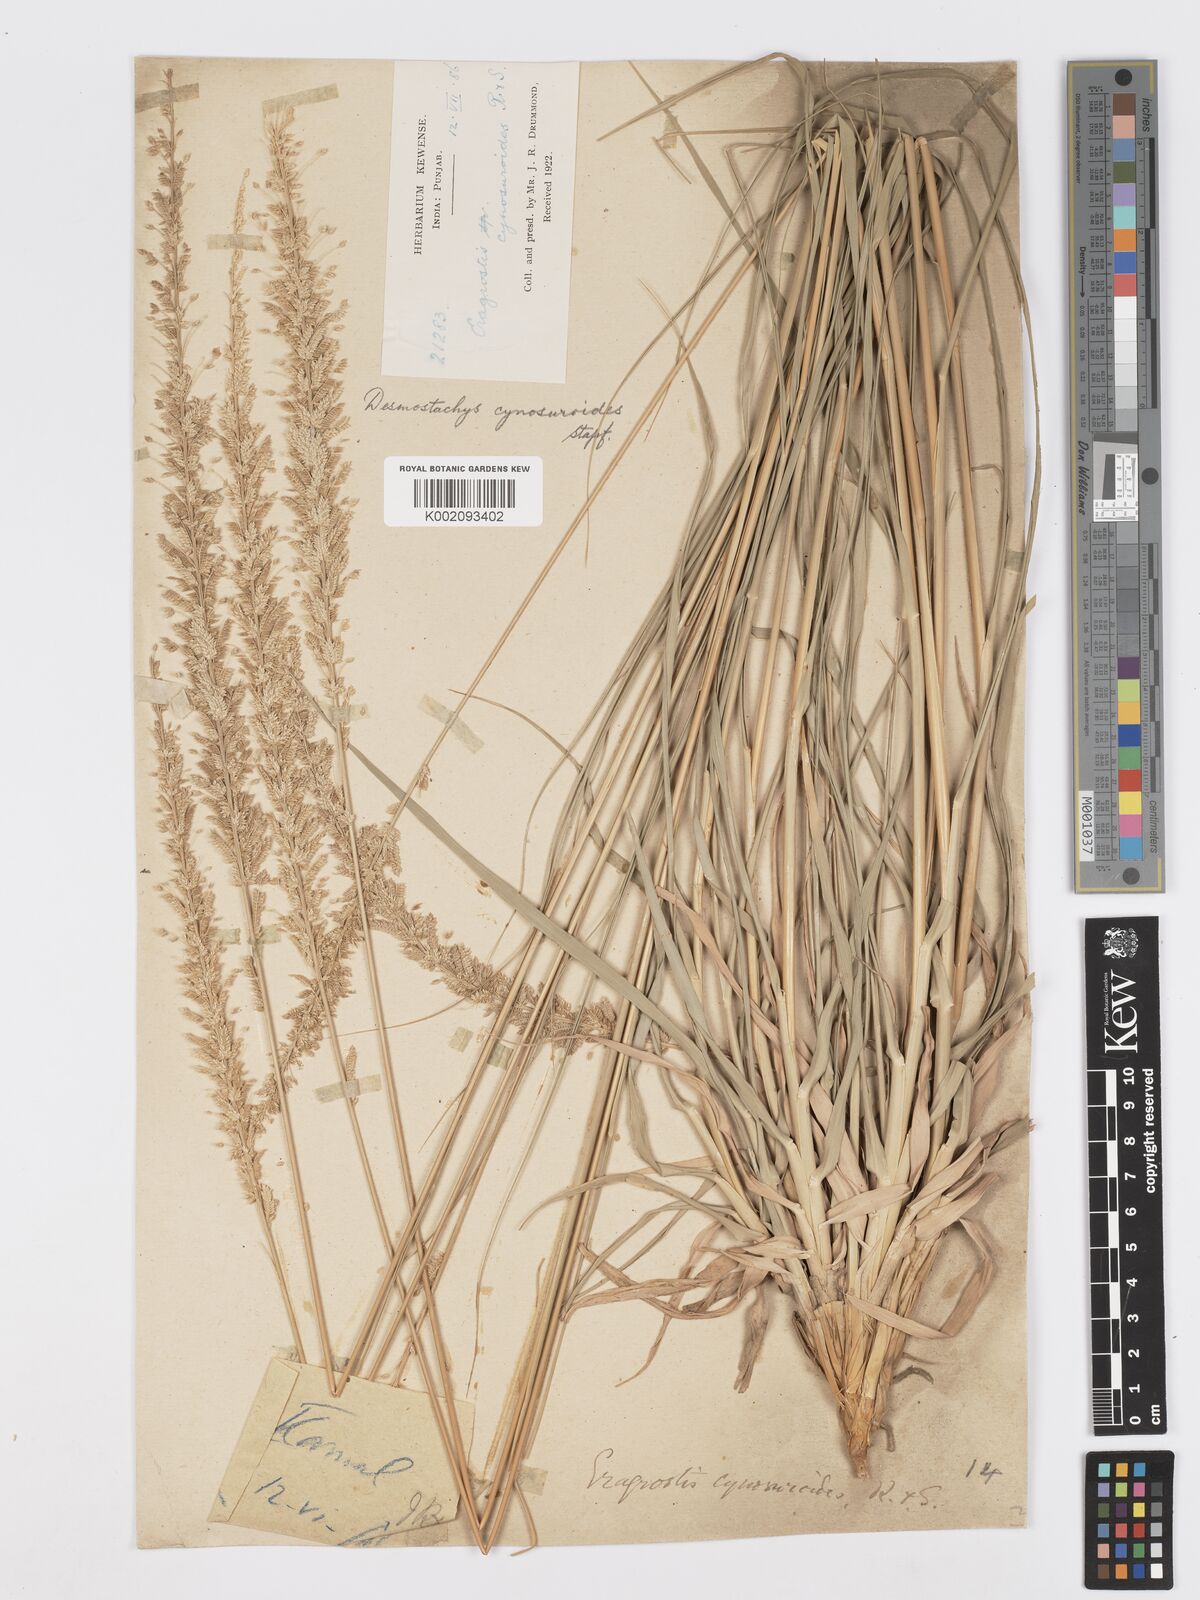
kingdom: Plantae
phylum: Tracheophyta
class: Liliopsida
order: Poales
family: Poaceae
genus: Desmostachya
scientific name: Desmostachya bipinnata
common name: Crowfoot grass
